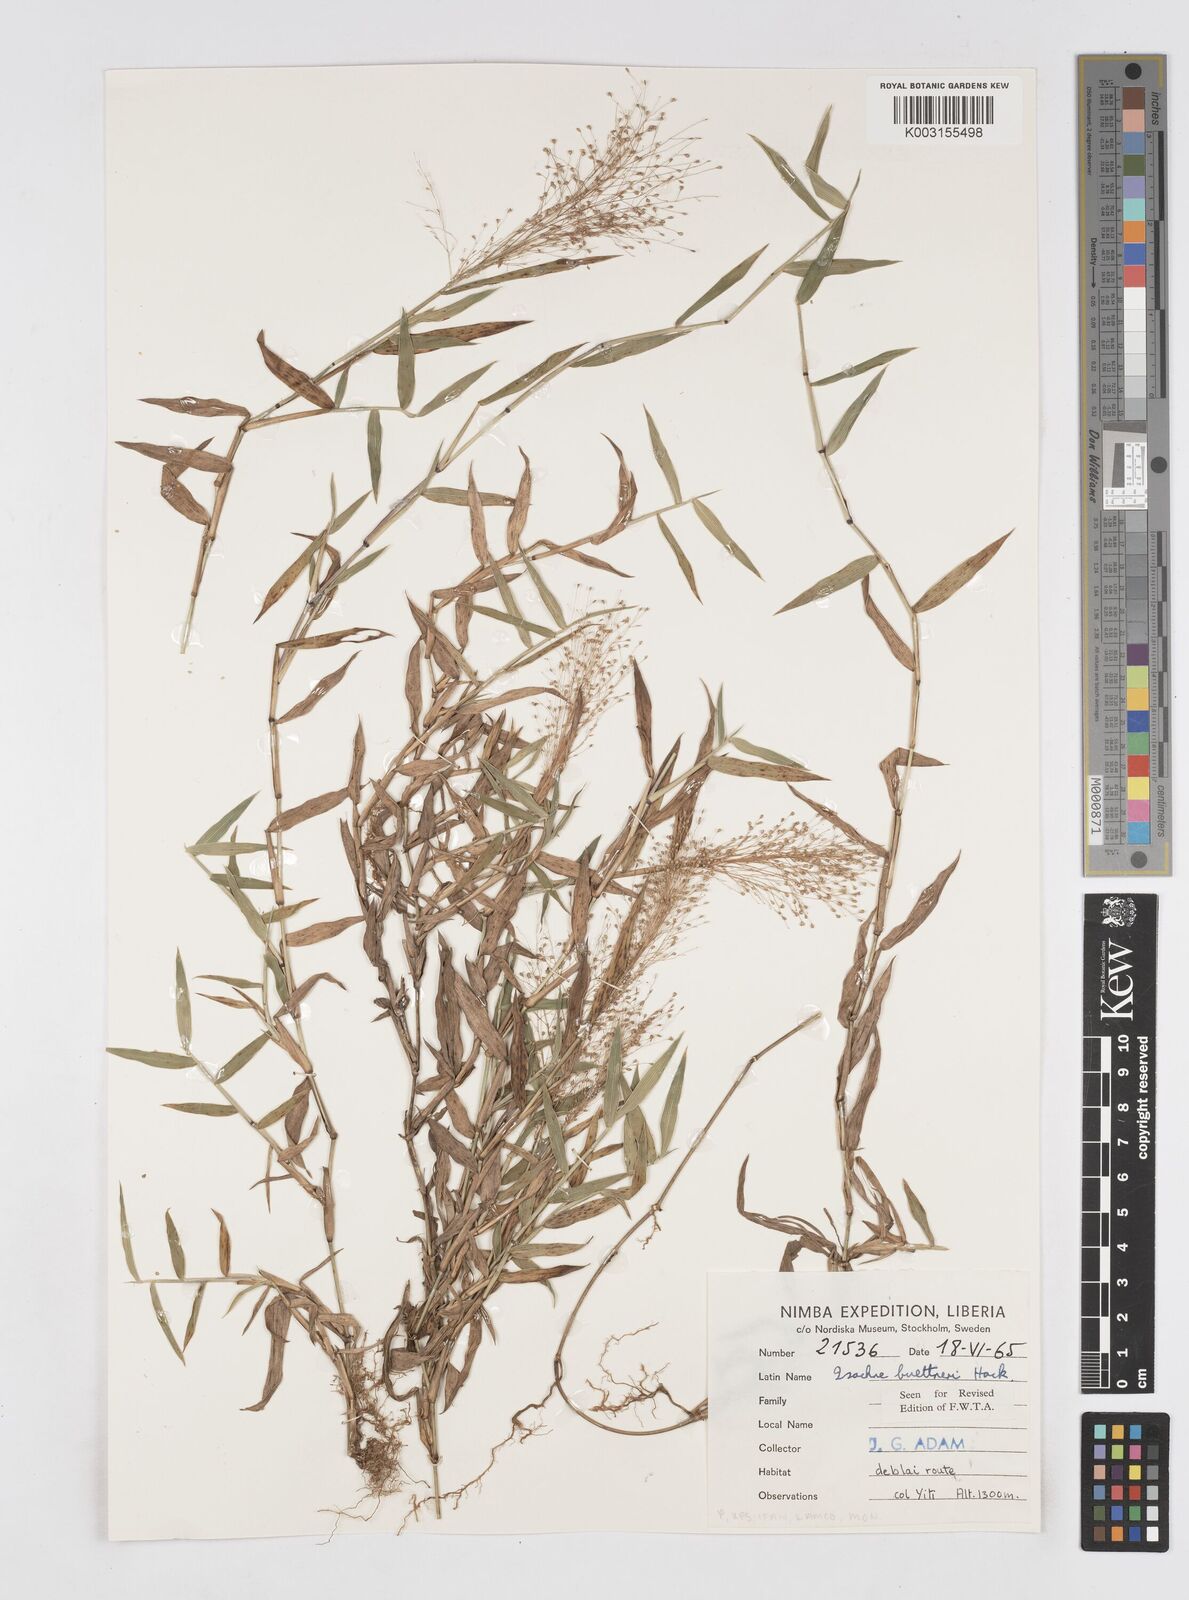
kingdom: Plantae
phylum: Tracheophyta
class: Liliopsida
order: Poales
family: Poaceae
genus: Isachne
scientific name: Isachne albens
